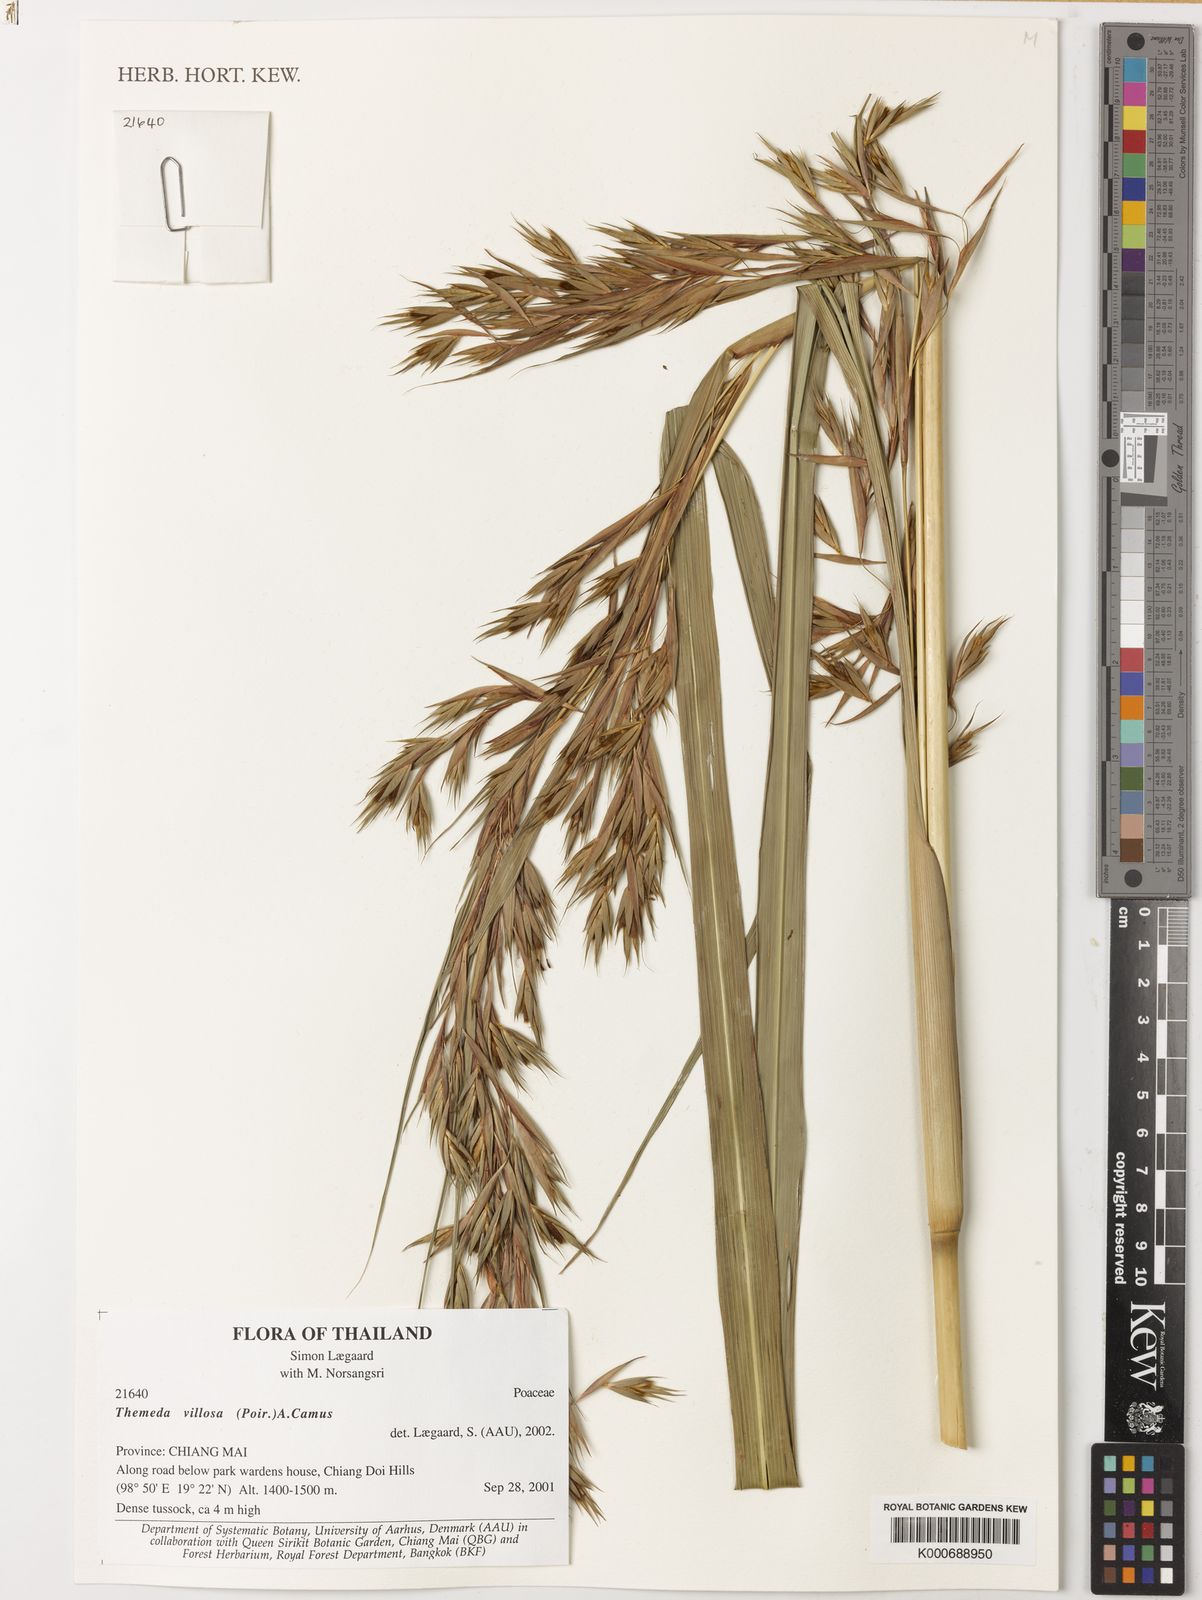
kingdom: Plantae
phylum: Tracheophyta
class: Liliopsida
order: Poales
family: Poaceae
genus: Themeda
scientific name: Themeda villosa
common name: Silky kangaroo grass
